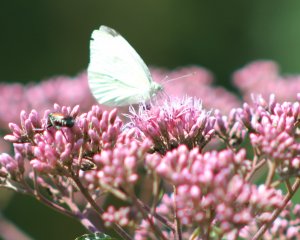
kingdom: Animalia
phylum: Arthropoda
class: Insecta
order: Lepidoptera
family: Pieridae
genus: Pieris
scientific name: Pieris rapae
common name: Cabbage White
